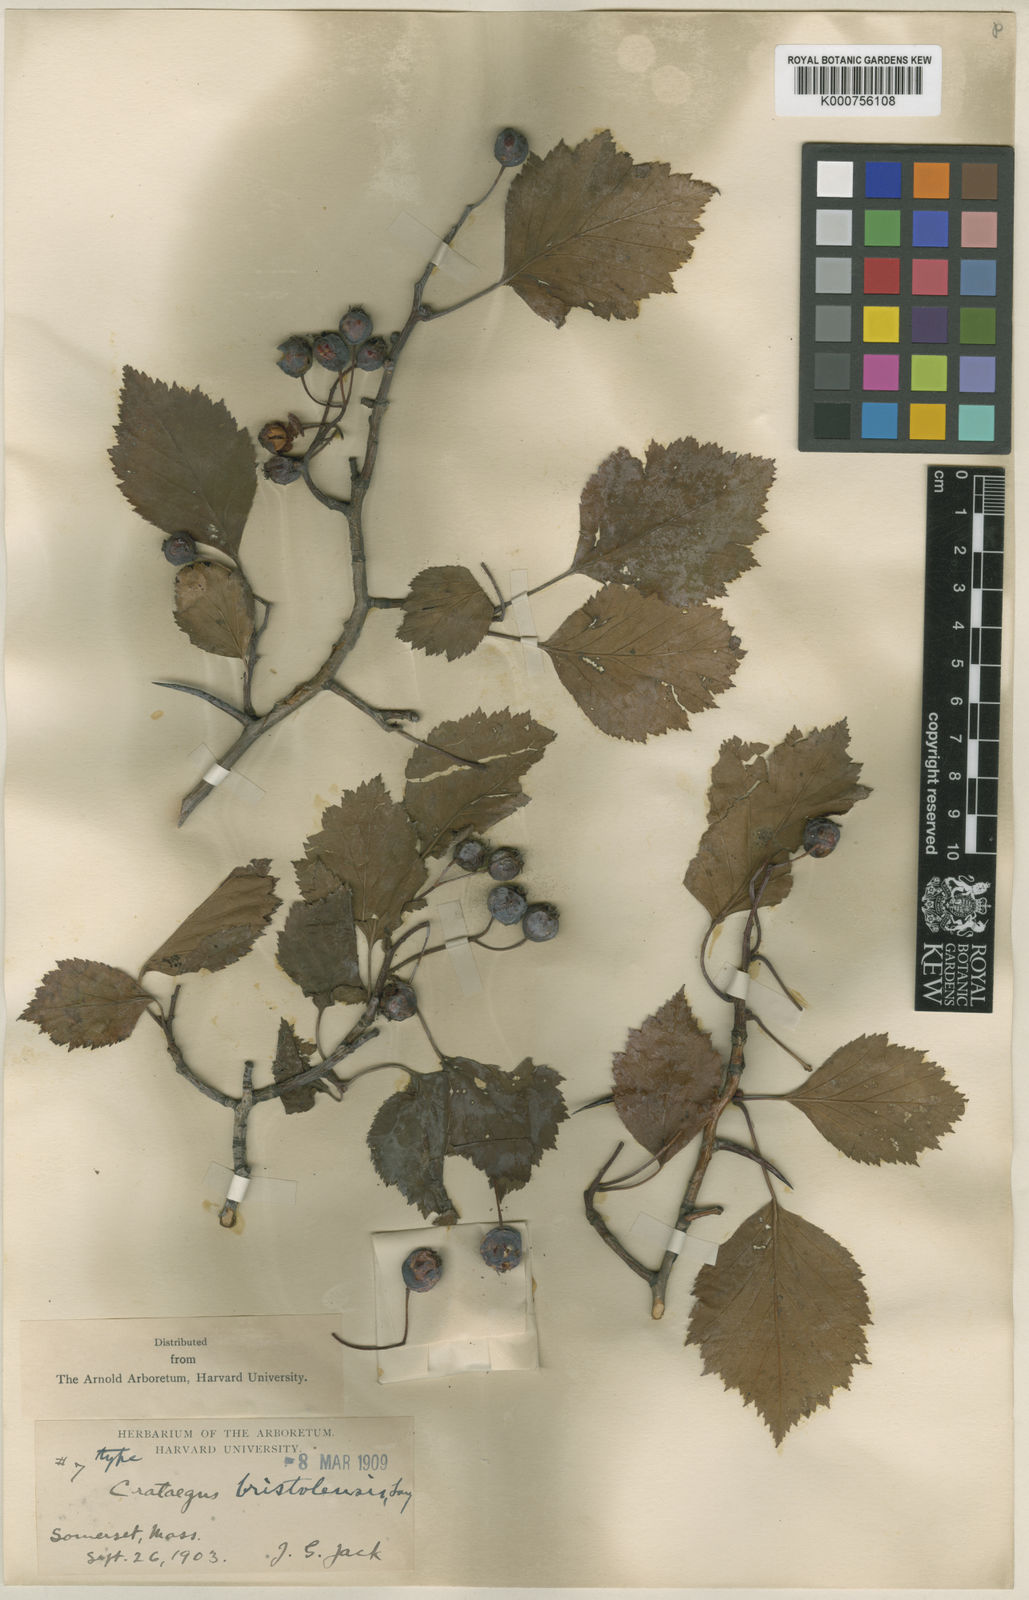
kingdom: Plantae
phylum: Tracheophyta
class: Magnoliopsida
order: Rosales
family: Rosaceae
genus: Crataegus
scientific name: Crataegus bristolensis
